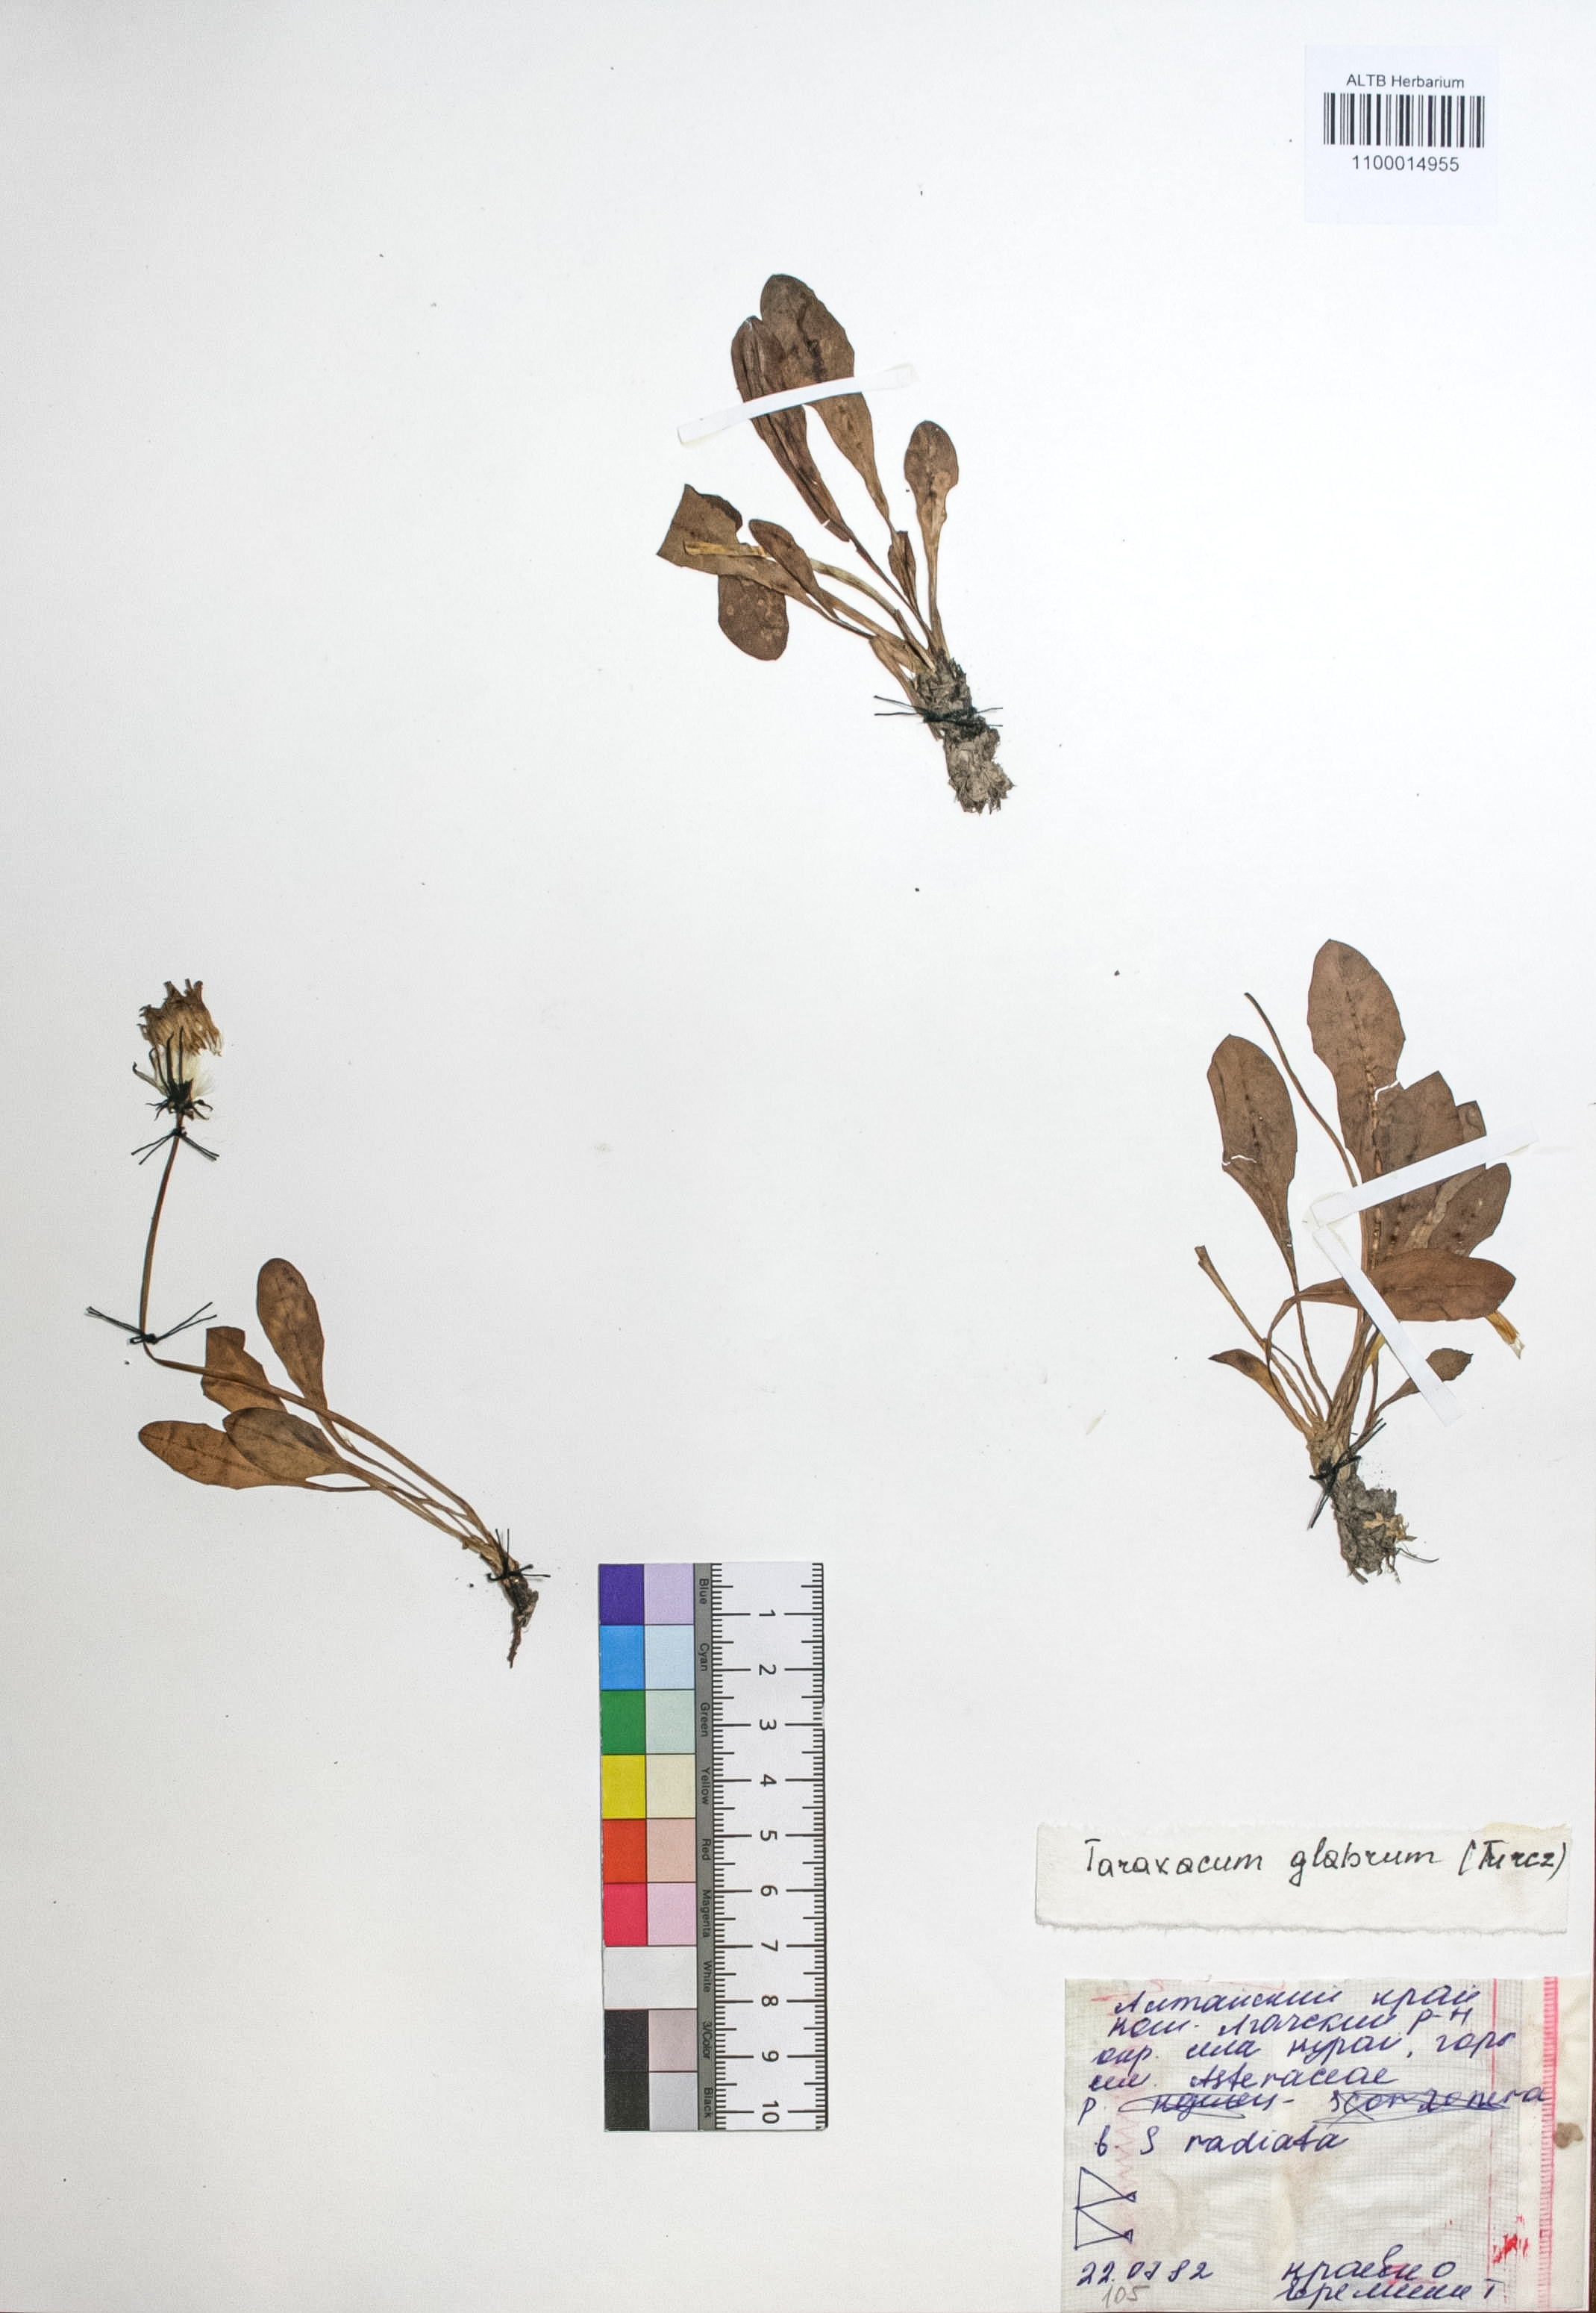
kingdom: Plantae
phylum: Tracheophyta
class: Magnoliopsida
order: Asterales
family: Asteraceae
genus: Taraxacum
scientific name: Taraxacum glabrum
